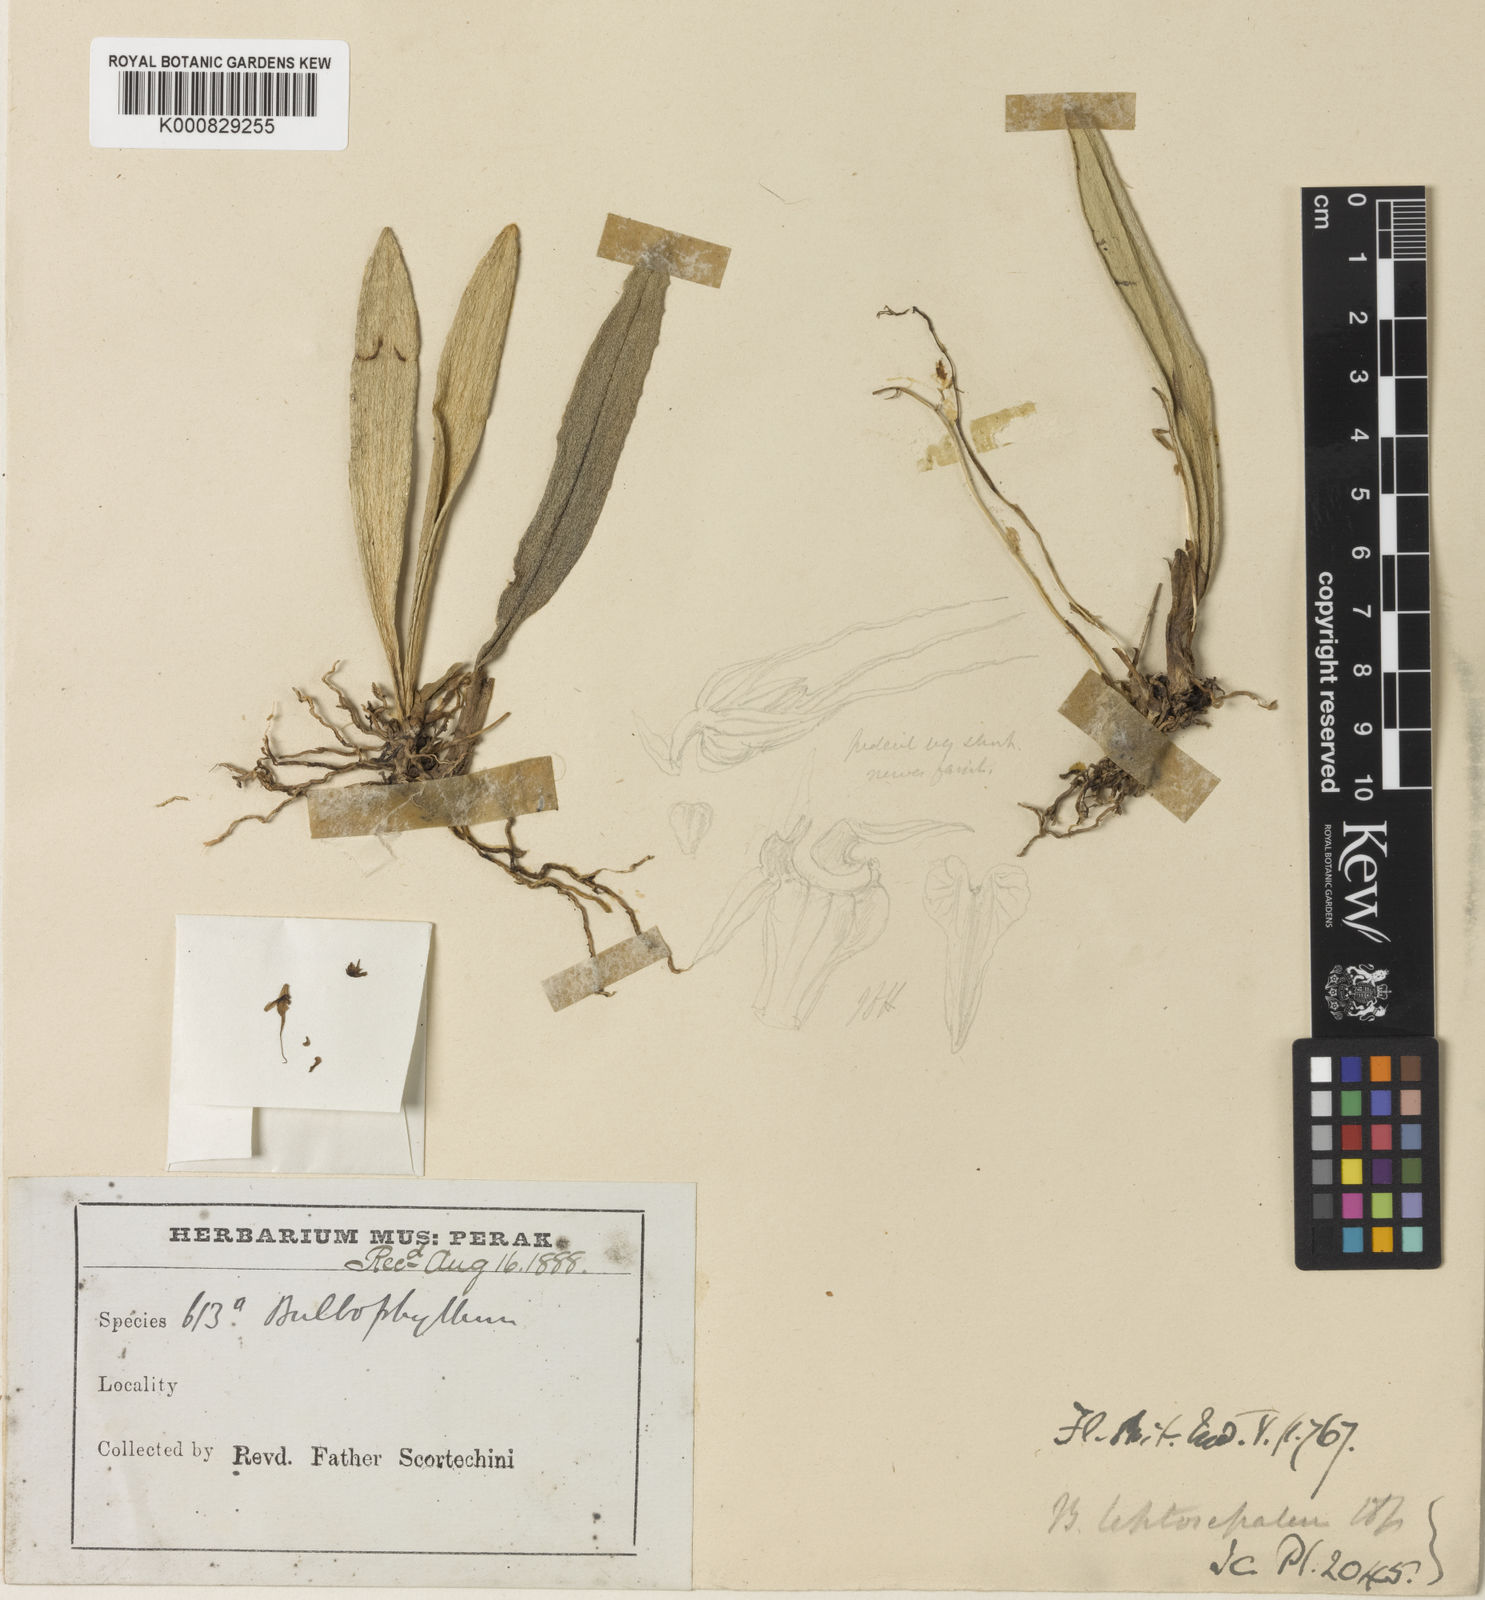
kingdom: Plantae
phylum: Tracheophyta
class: Liliopsida
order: Asparagales
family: Orchidaceae
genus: Bulbophyllum
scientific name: Bulbophyllum leptosepalum
